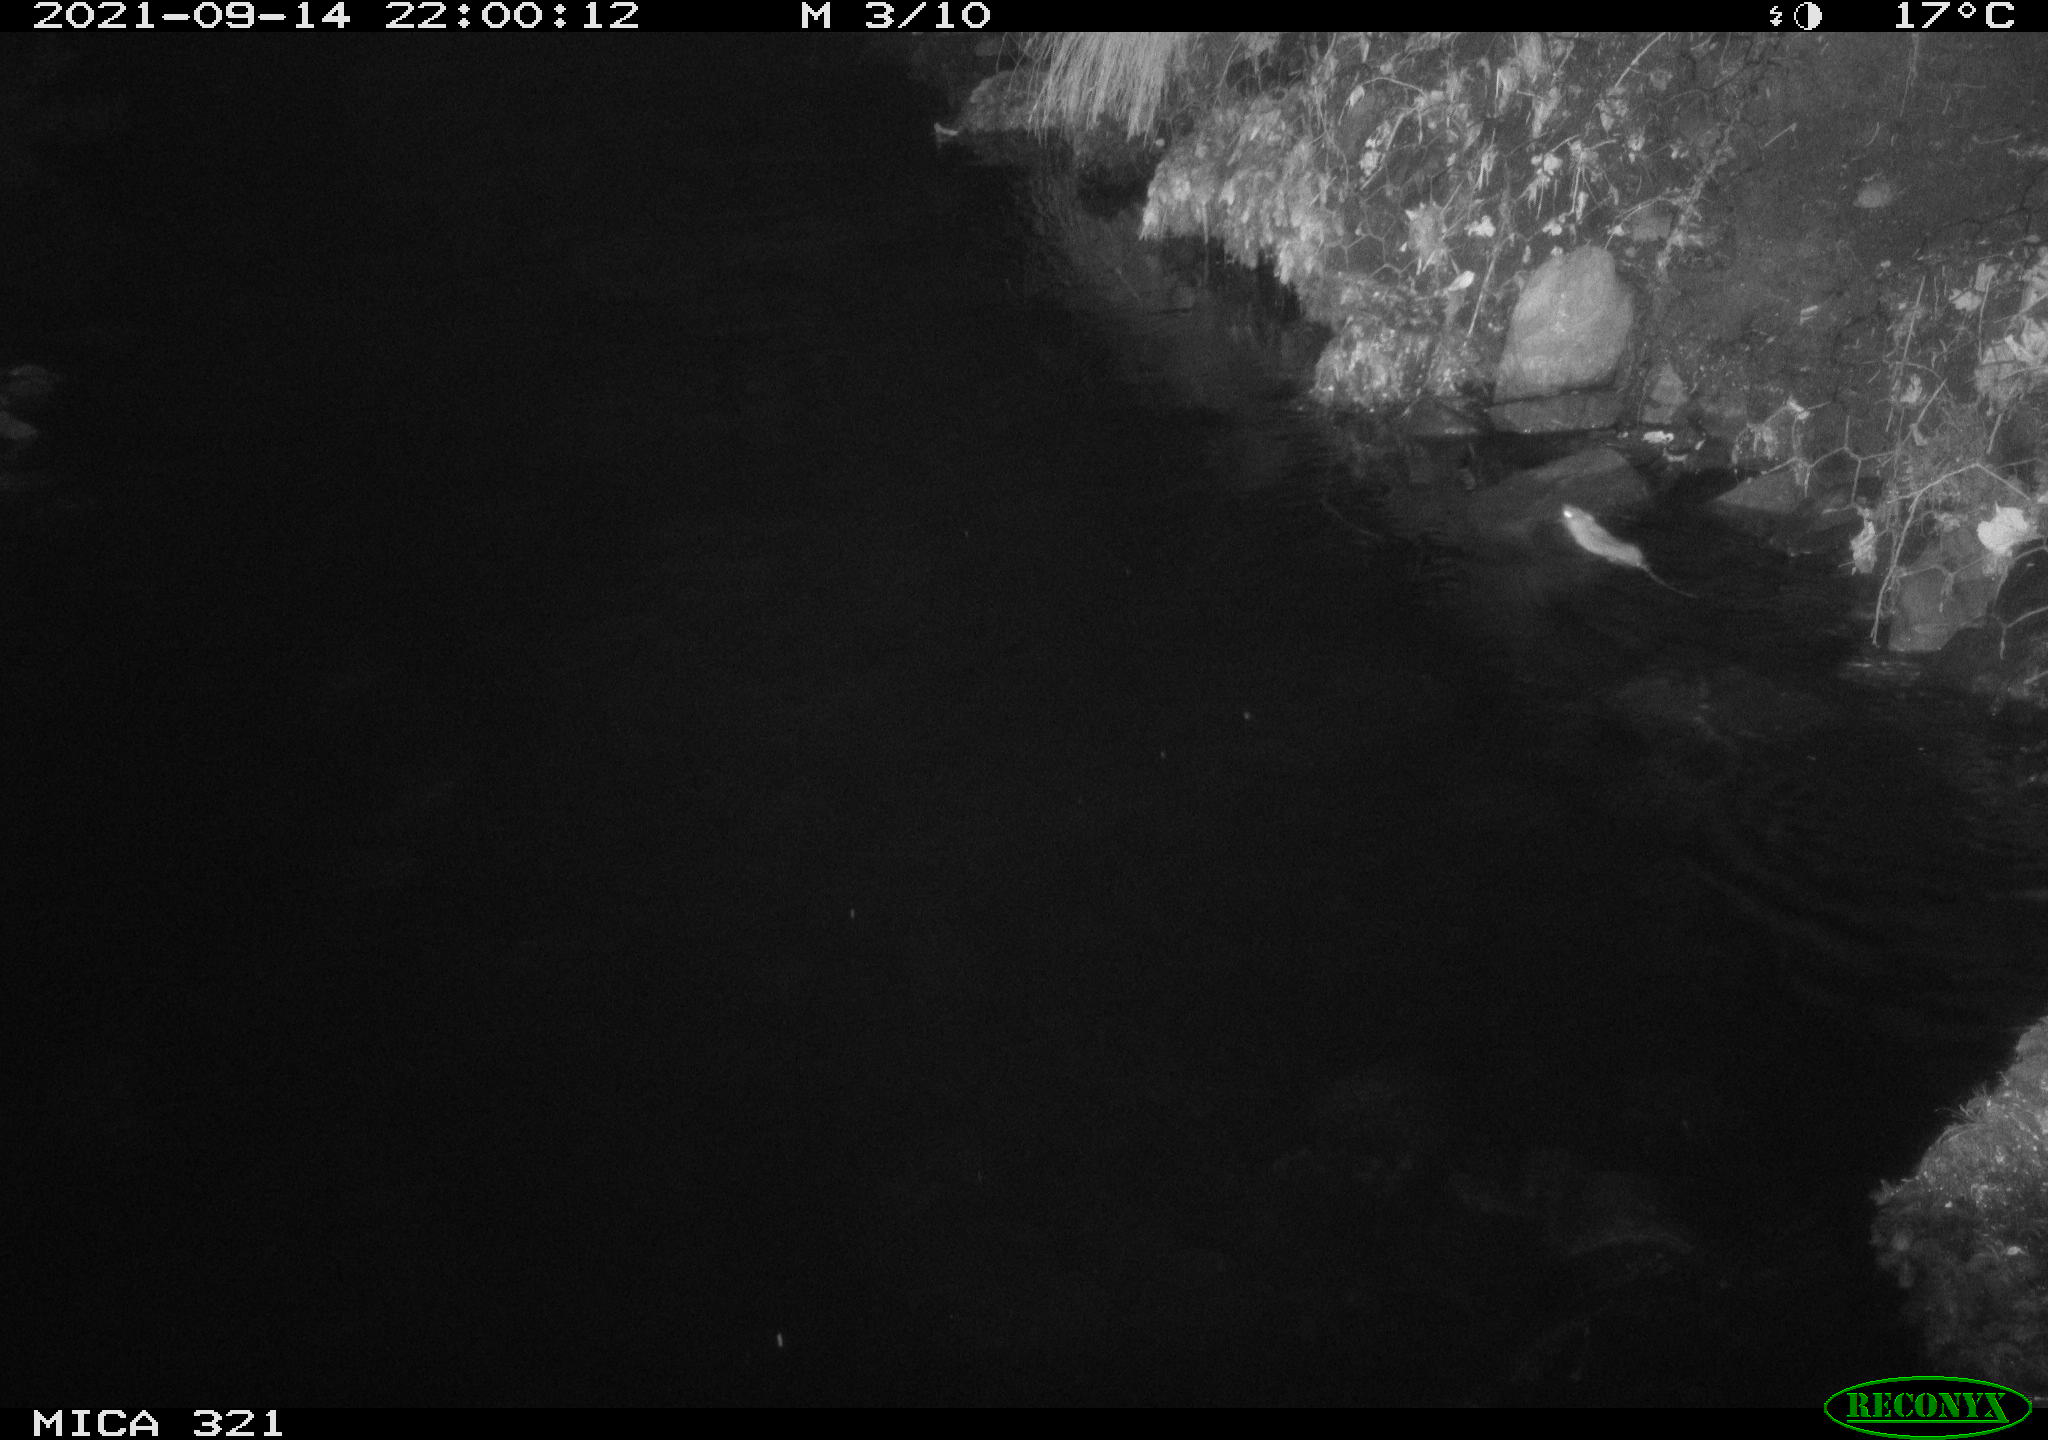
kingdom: Animalia
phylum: Chordata
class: Mammalia
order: Rodentia
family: Muridae
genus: Rattus
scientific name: Rattus norvegicus
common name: Brown rat
